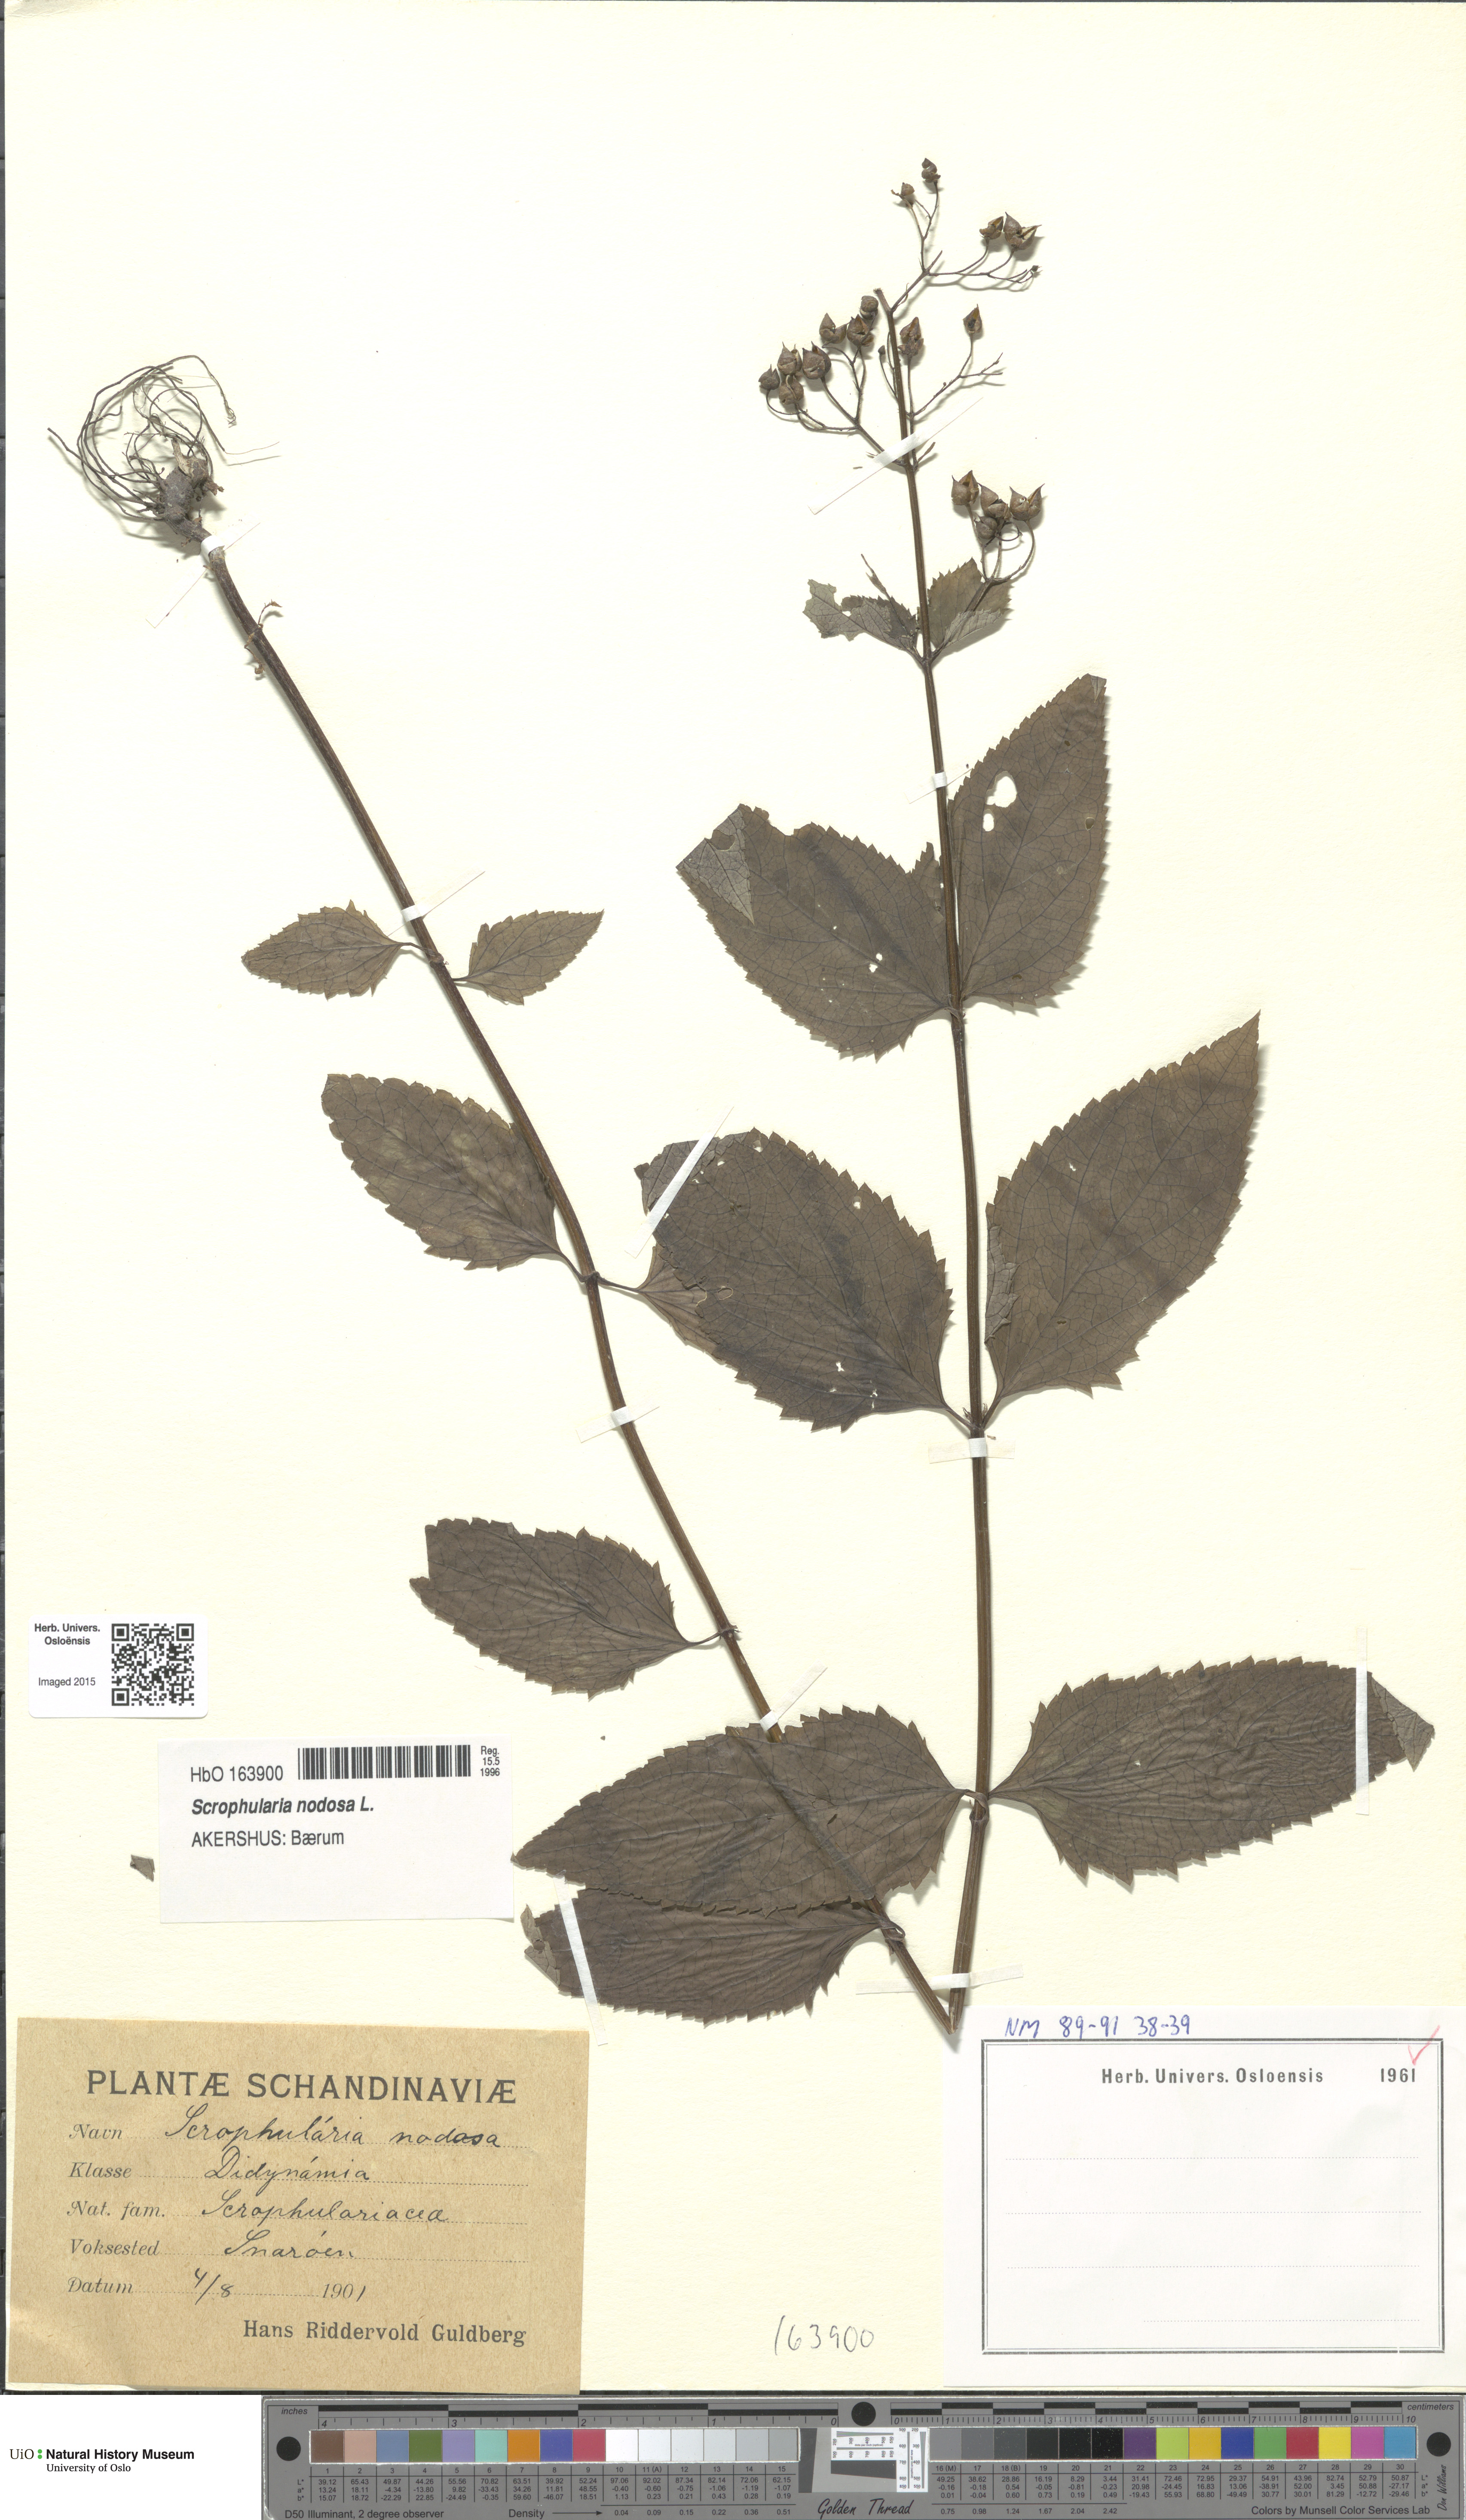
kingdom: Plantae
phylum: Tracheophyta
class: Magnoliopsida
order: Lamiales
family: Scrophulariaceae
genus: Scrophularia
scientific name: Scrophularia nodosa
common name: Common figwort
